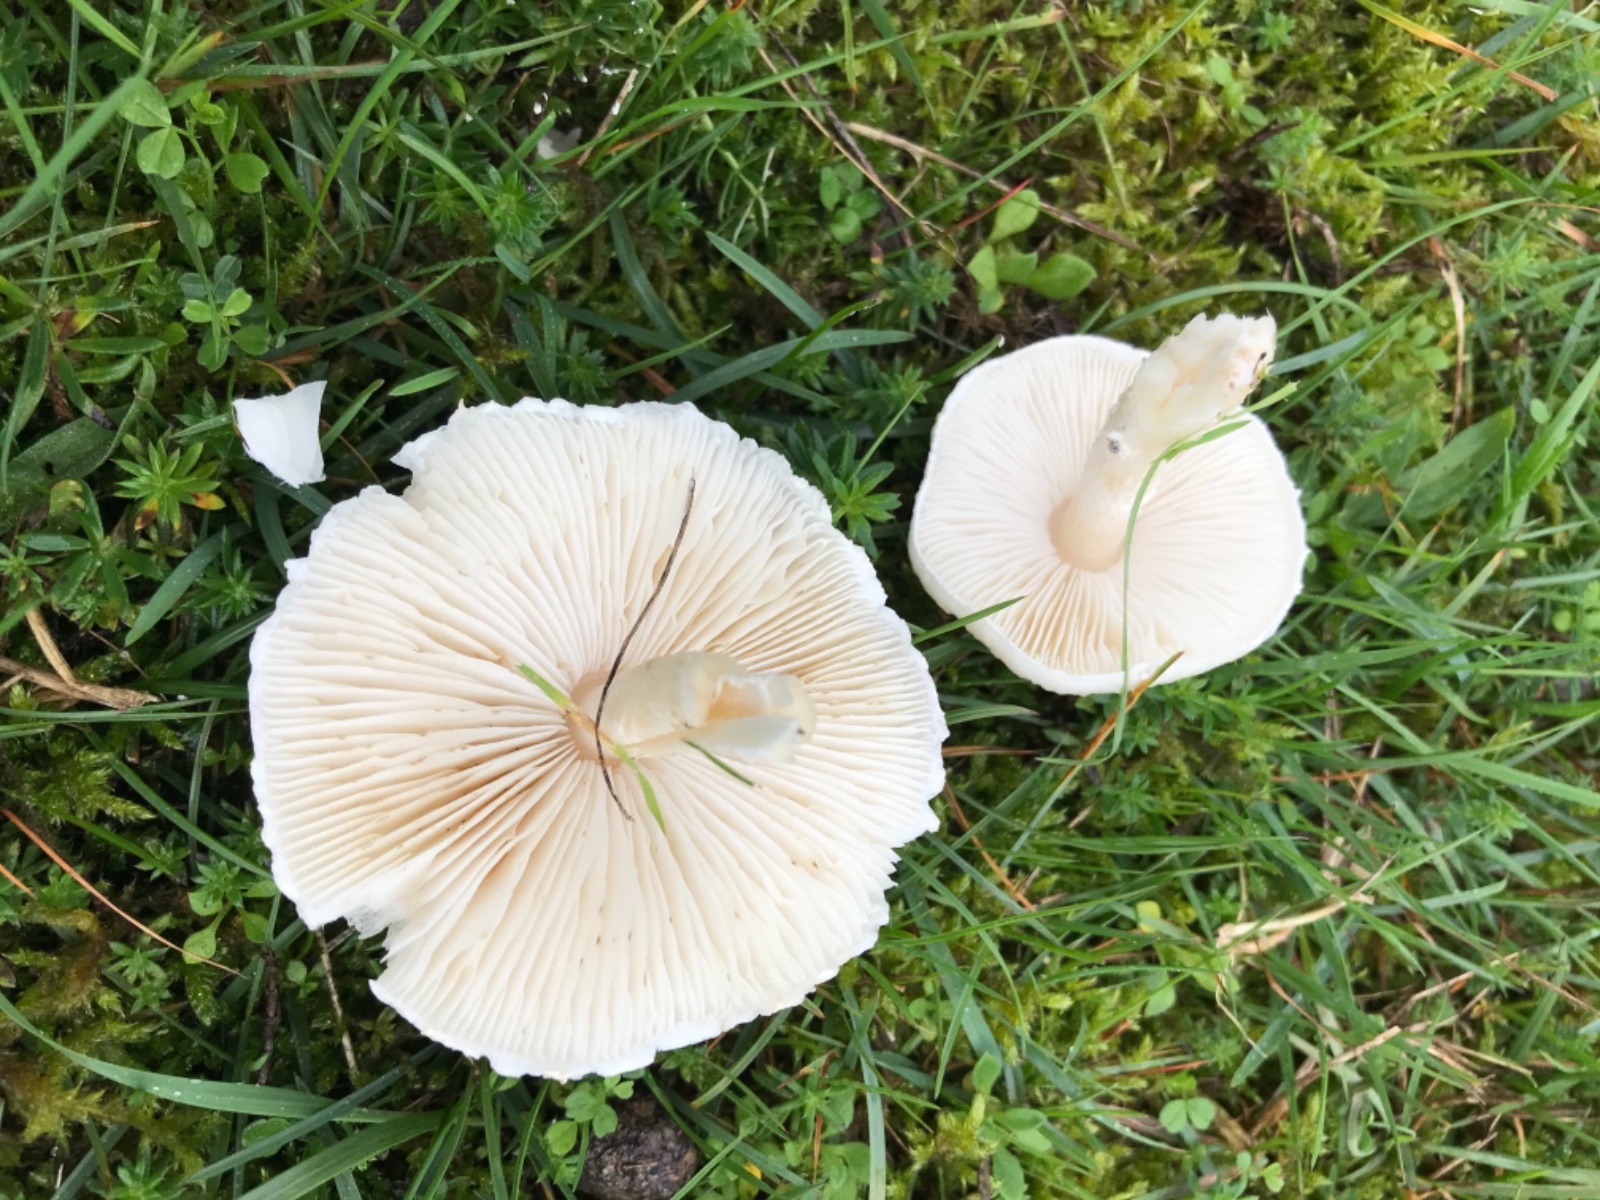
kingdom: Fungi
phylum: Basidiomycota
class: Agaricomycetes
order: Agaricales
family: Agaricaceae
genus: Lepiota
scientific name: Lepiota erminea
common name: hvid parasolhat
